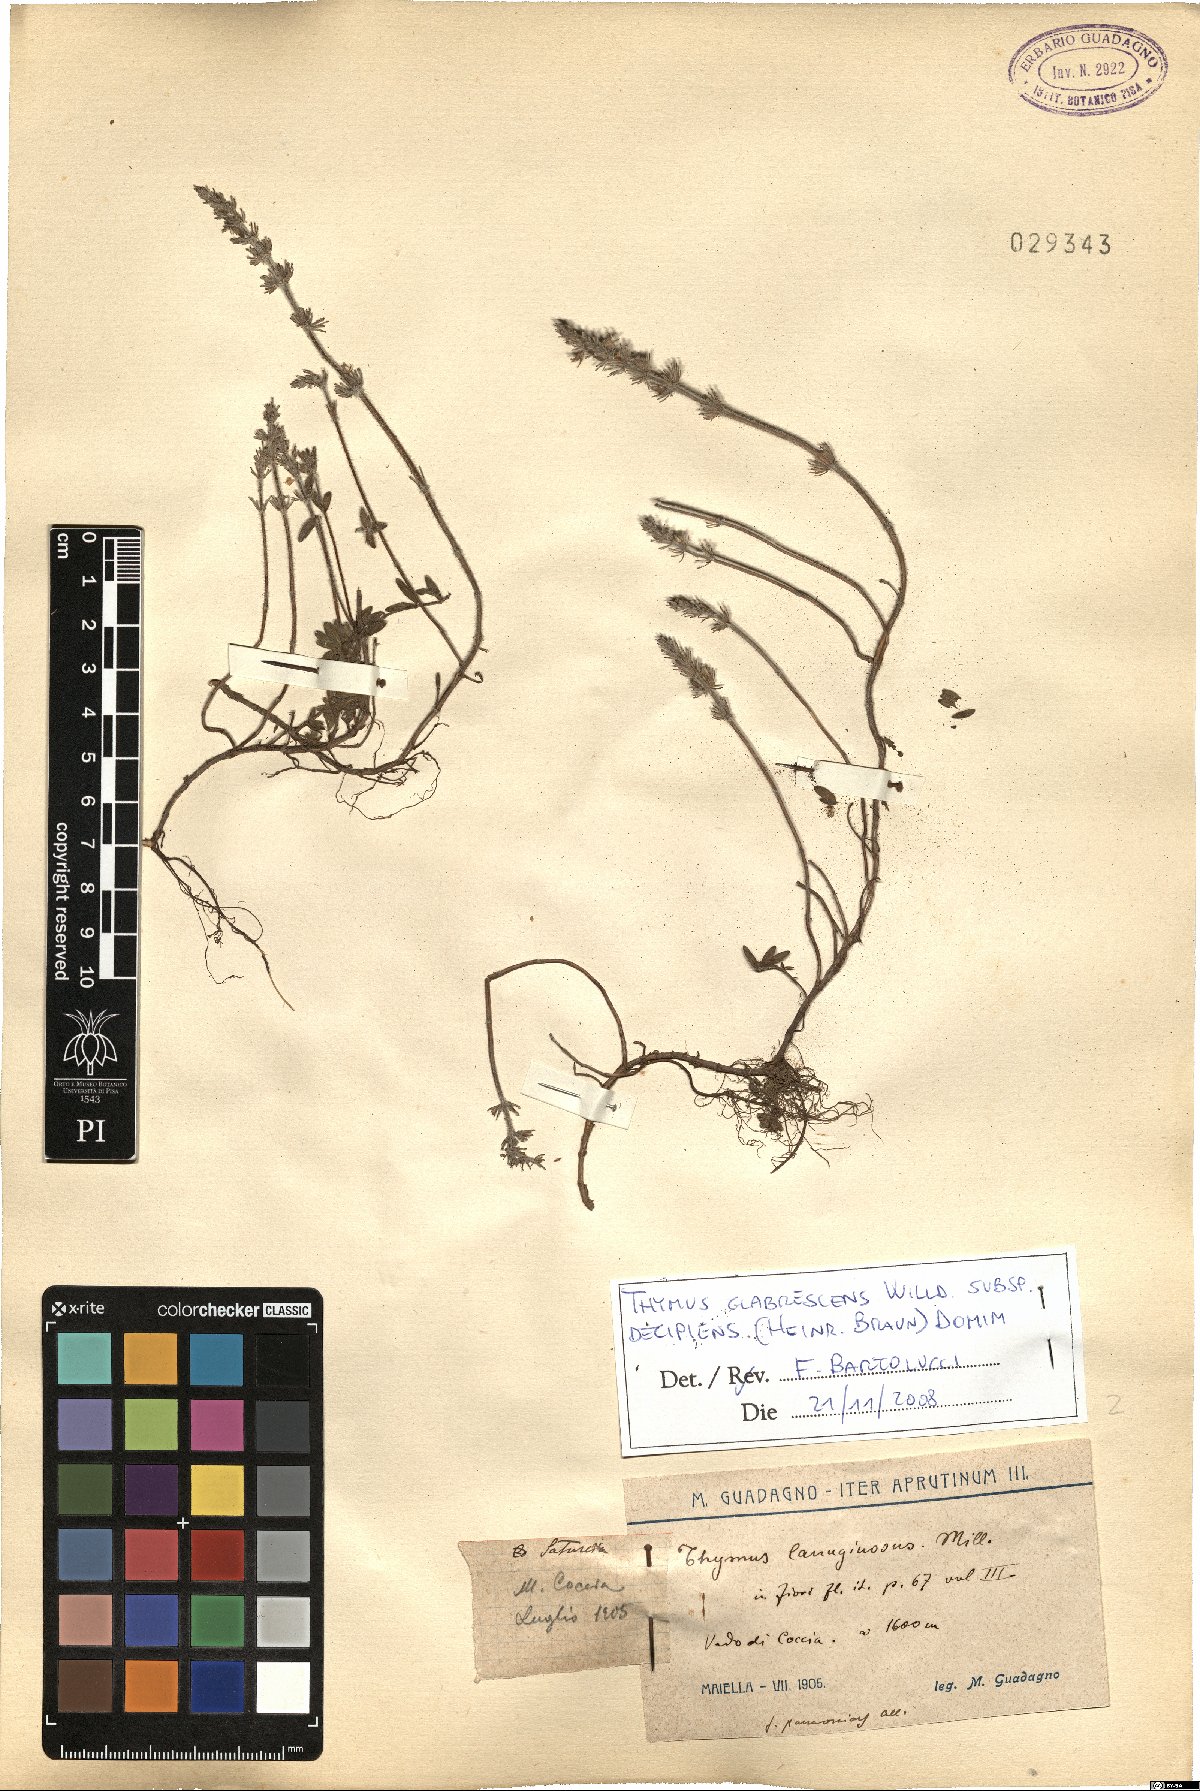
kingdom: Plantae
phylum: Tracheophyta
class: Magnoliopsida
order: Lamiales
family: Lamiaceae
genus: Thymus
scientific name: Thymus oenipontanus
